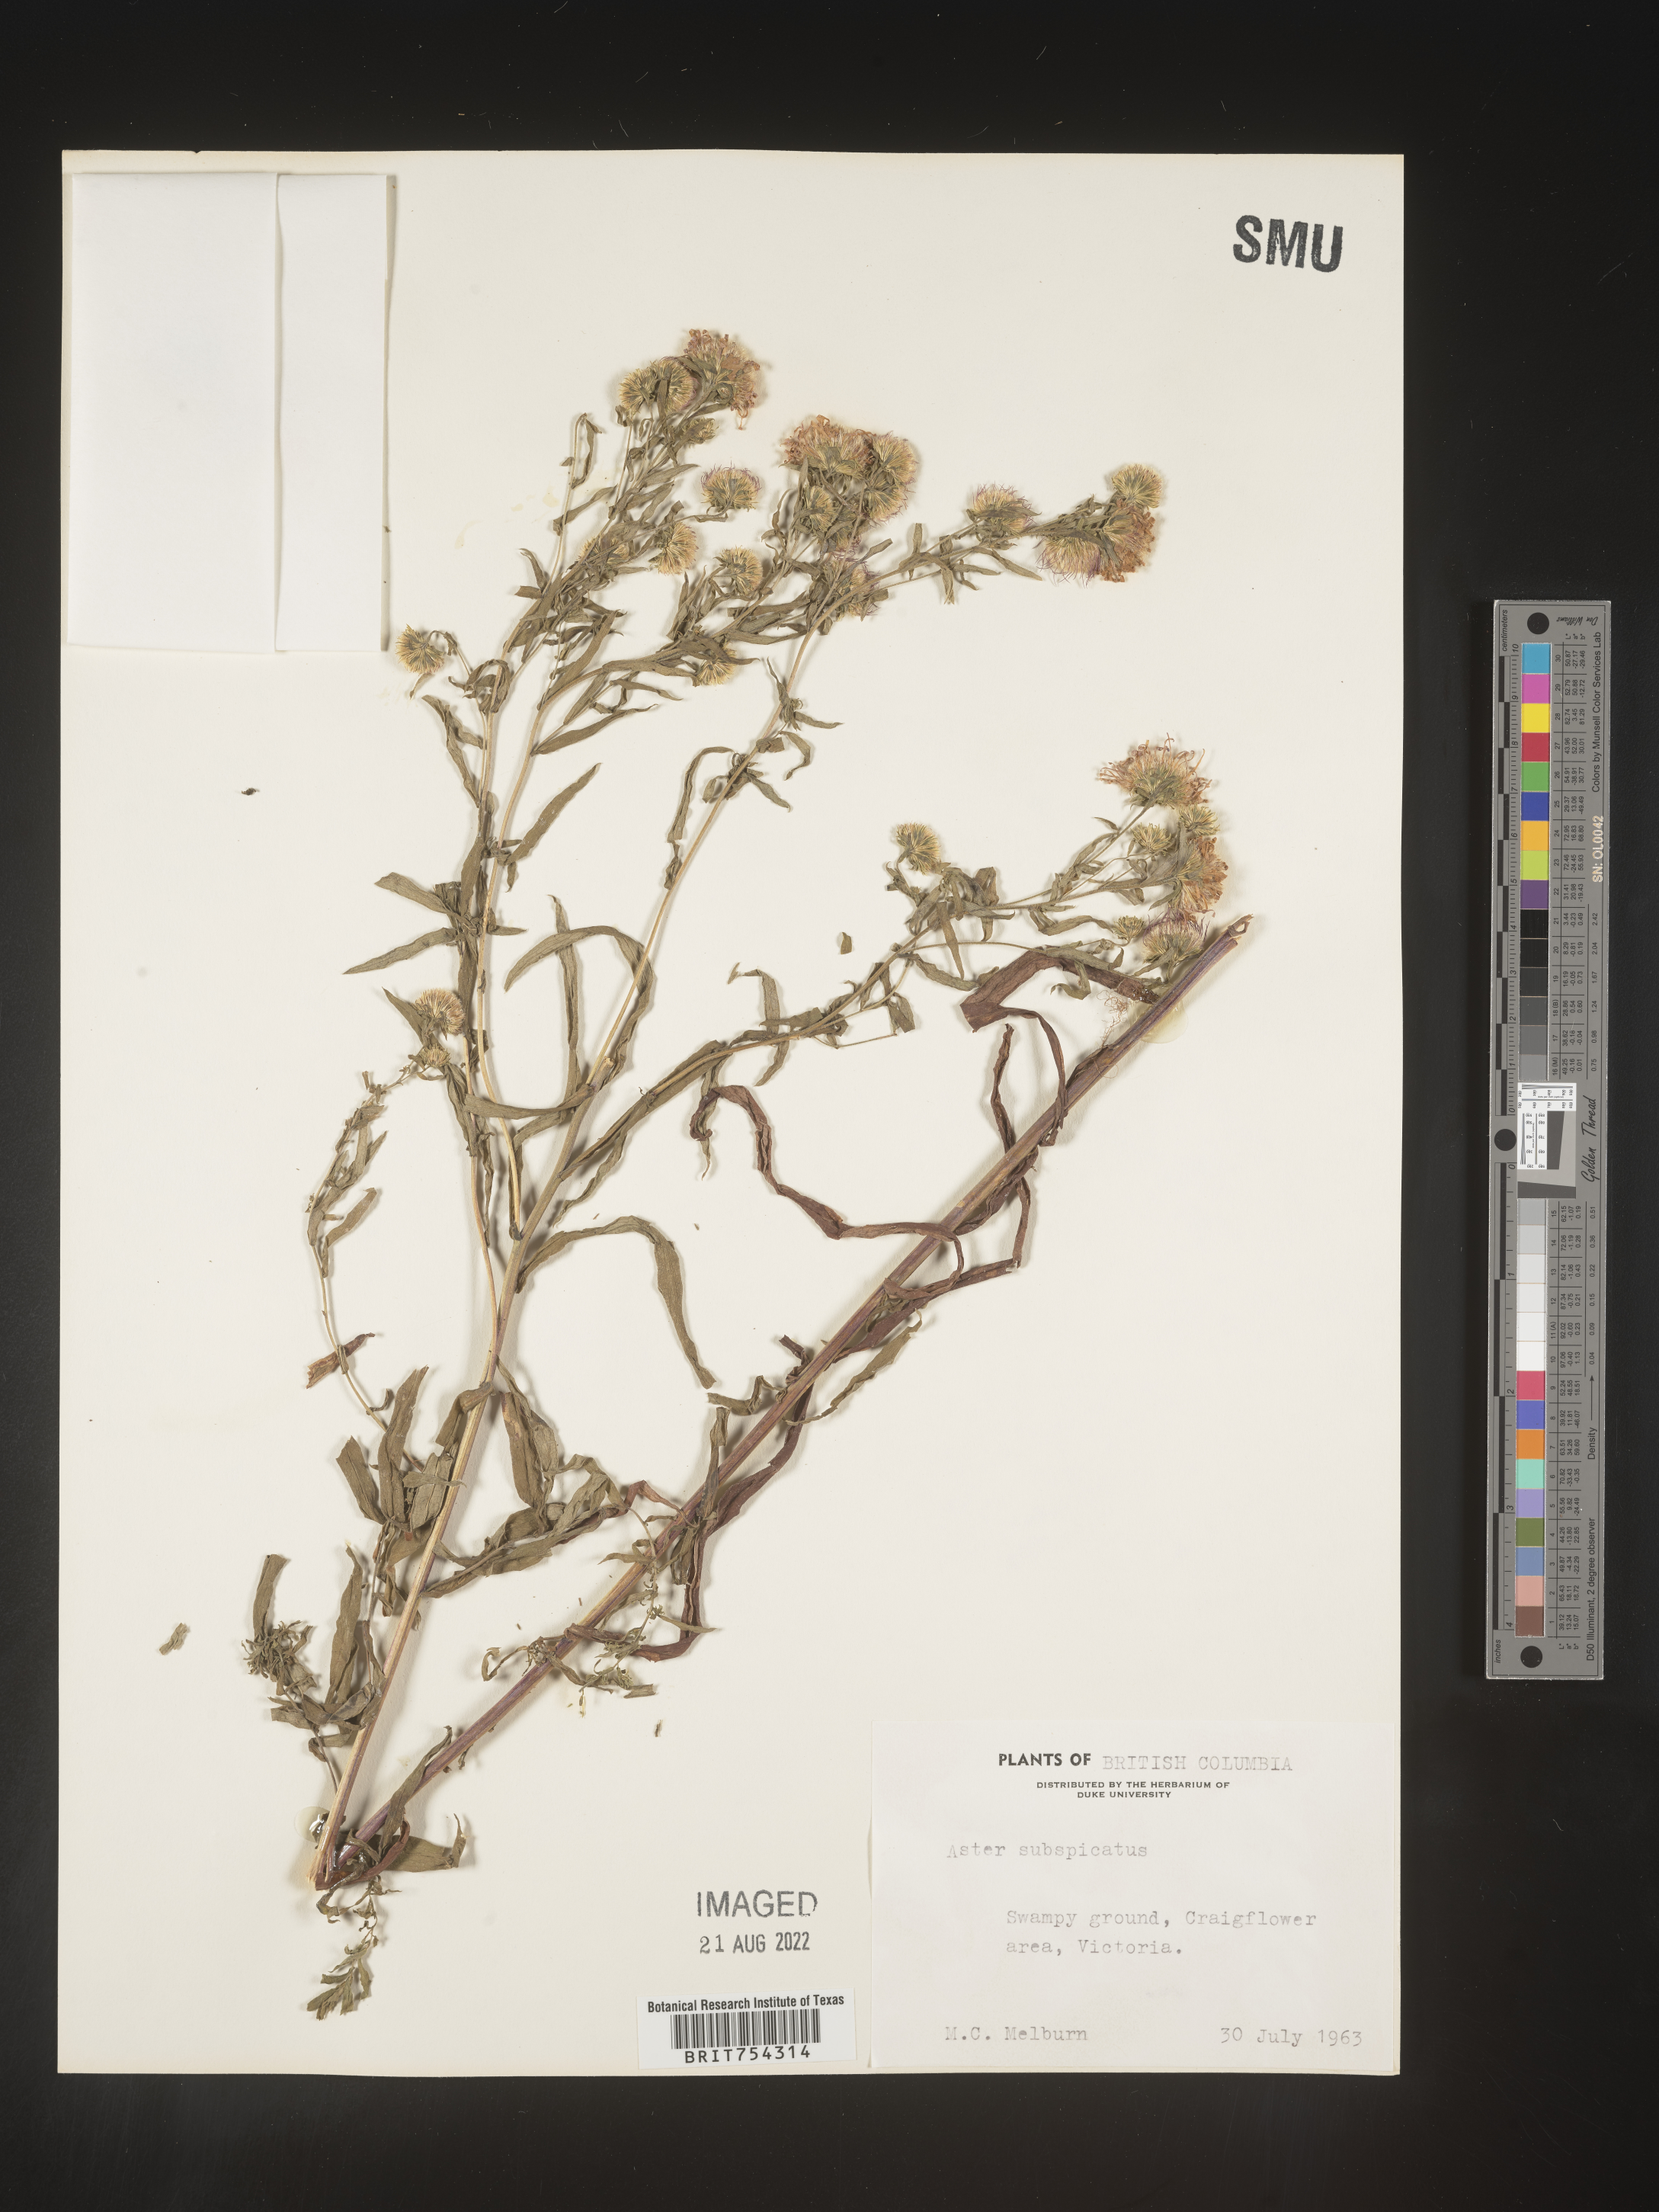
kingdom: Plantae
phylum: Tracheophyta
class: Magnoliopsida
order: Asterales
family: Asteraceae
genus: Symphyotrichum
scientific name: Symphyotrichum subspicatum
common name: Douglas' aster
